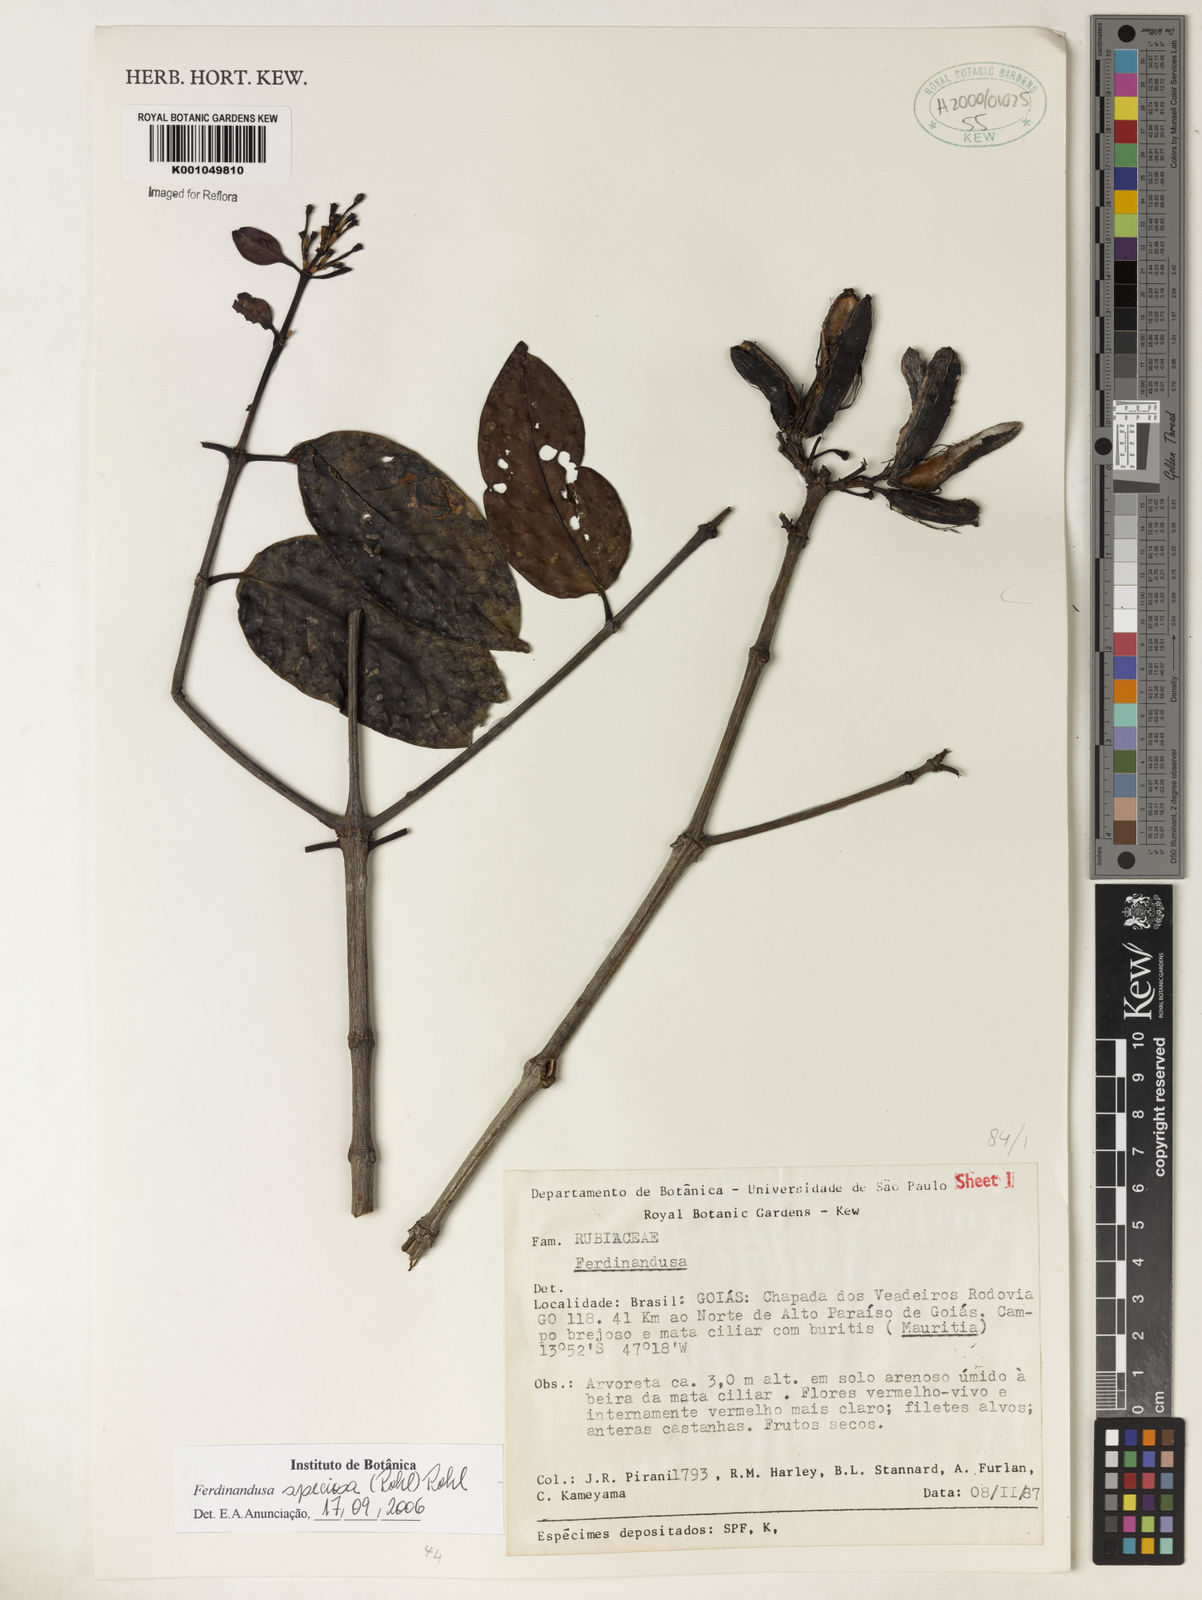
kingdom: Plantae
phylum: Tracheophyta
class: Magnoliopsida
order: Gentianales
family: Rubiaceae
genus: Ferdinandusa
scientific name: Ferdinandusa speciosa
